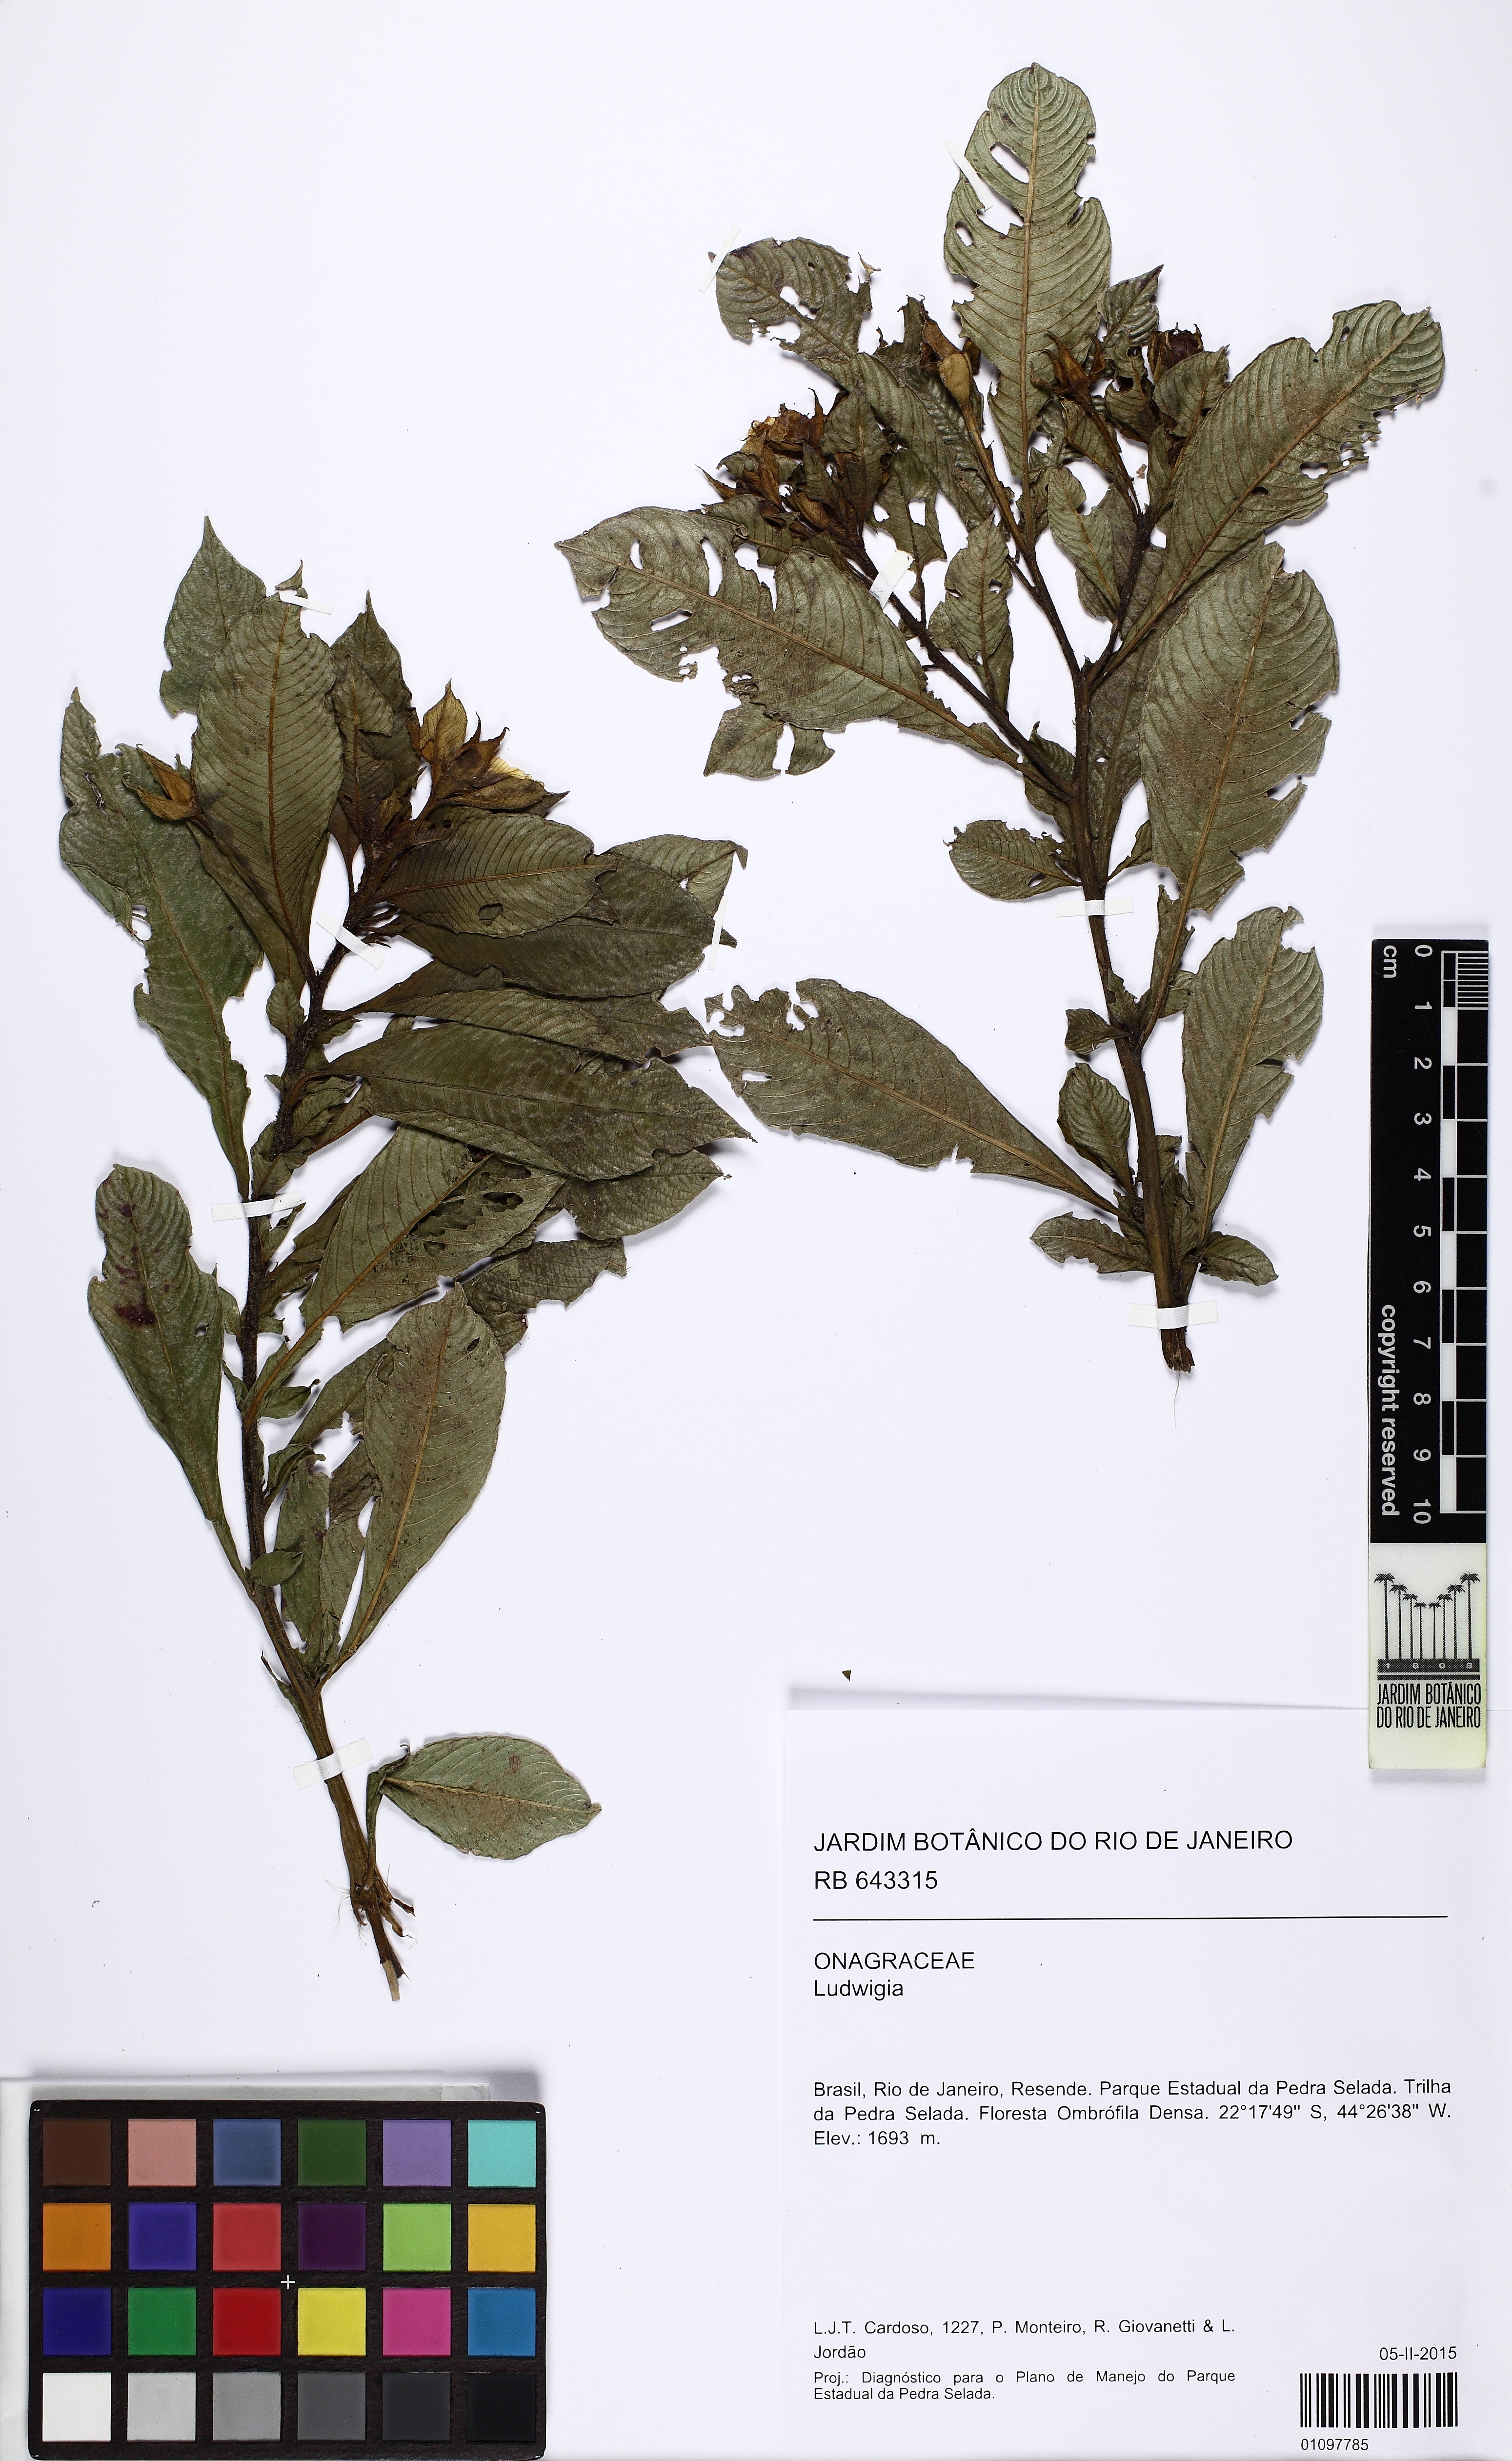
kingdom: Plantae
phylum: Tracheophyta
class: Magnoliopsida
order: Myrtales
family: Onagraceae
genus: Ludwigia
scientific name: Ludwigia
